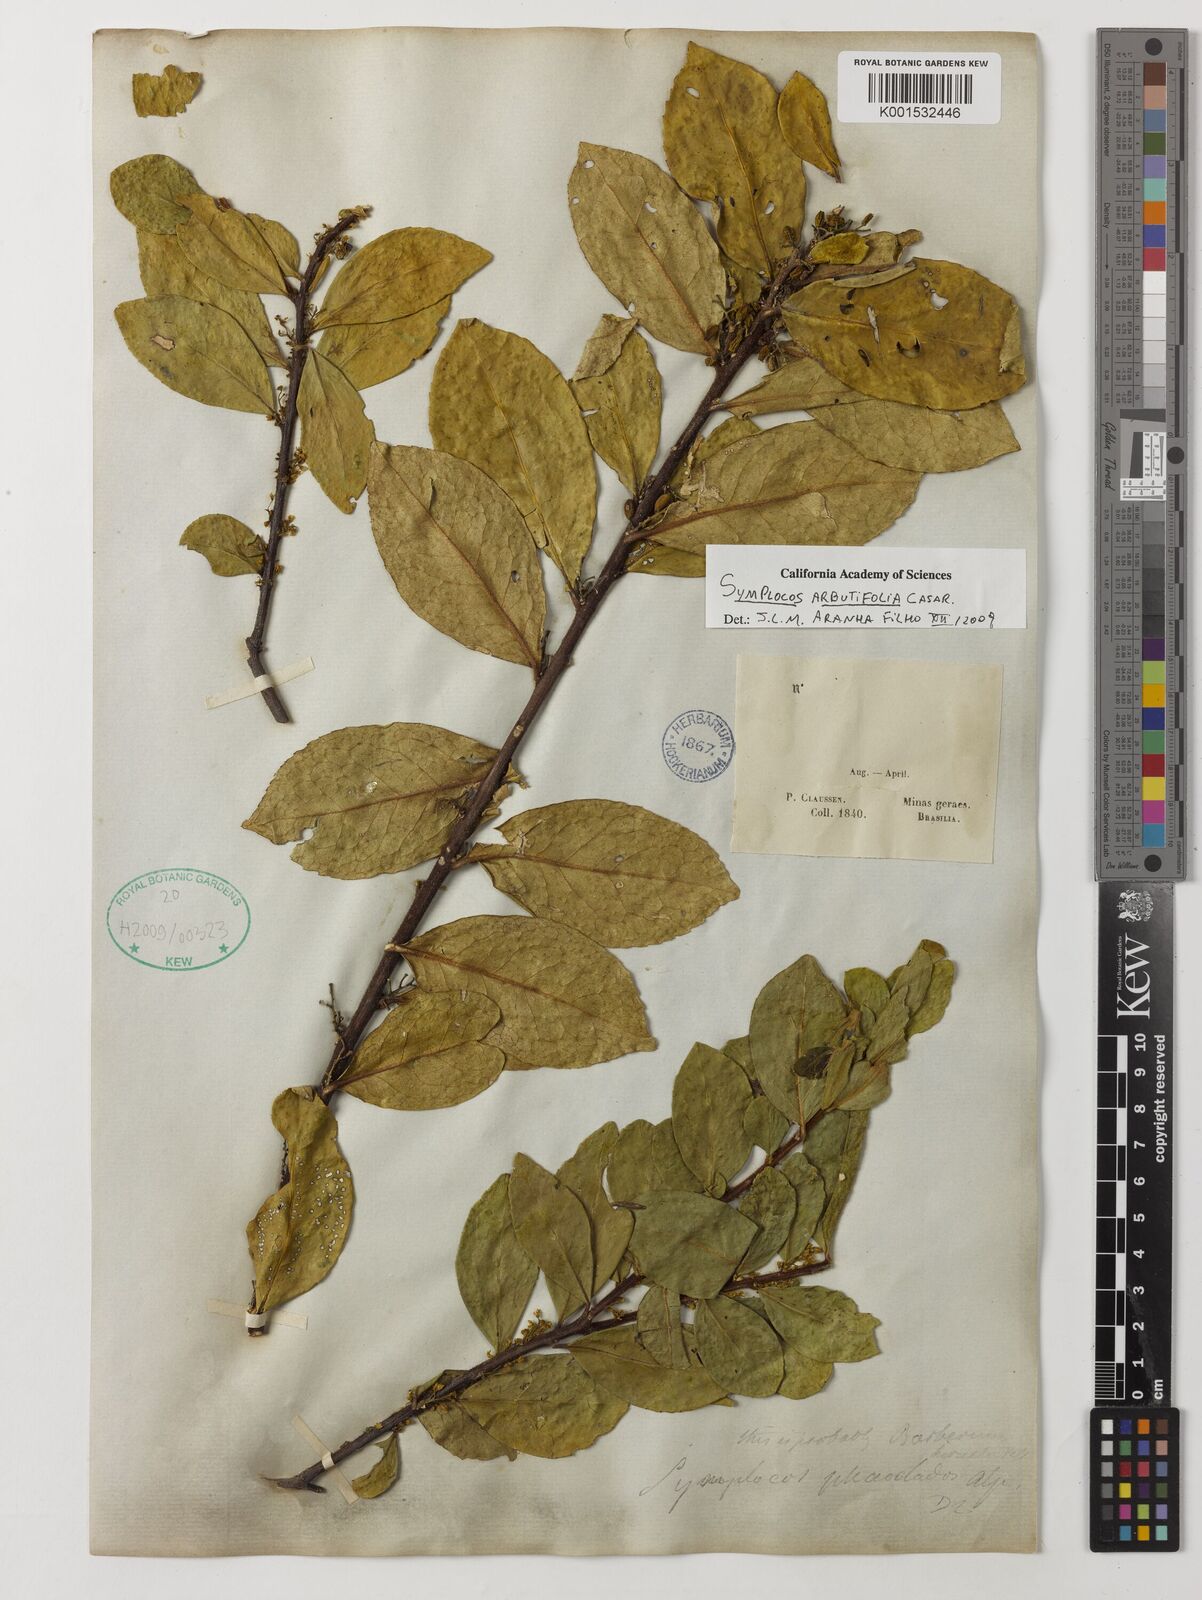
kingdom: Plantae
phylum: Tracheophyta
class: Magnoliopsida
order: Ericales
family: Symplocaceae
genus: Symplocos
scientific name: Symplocos arbutifolia
